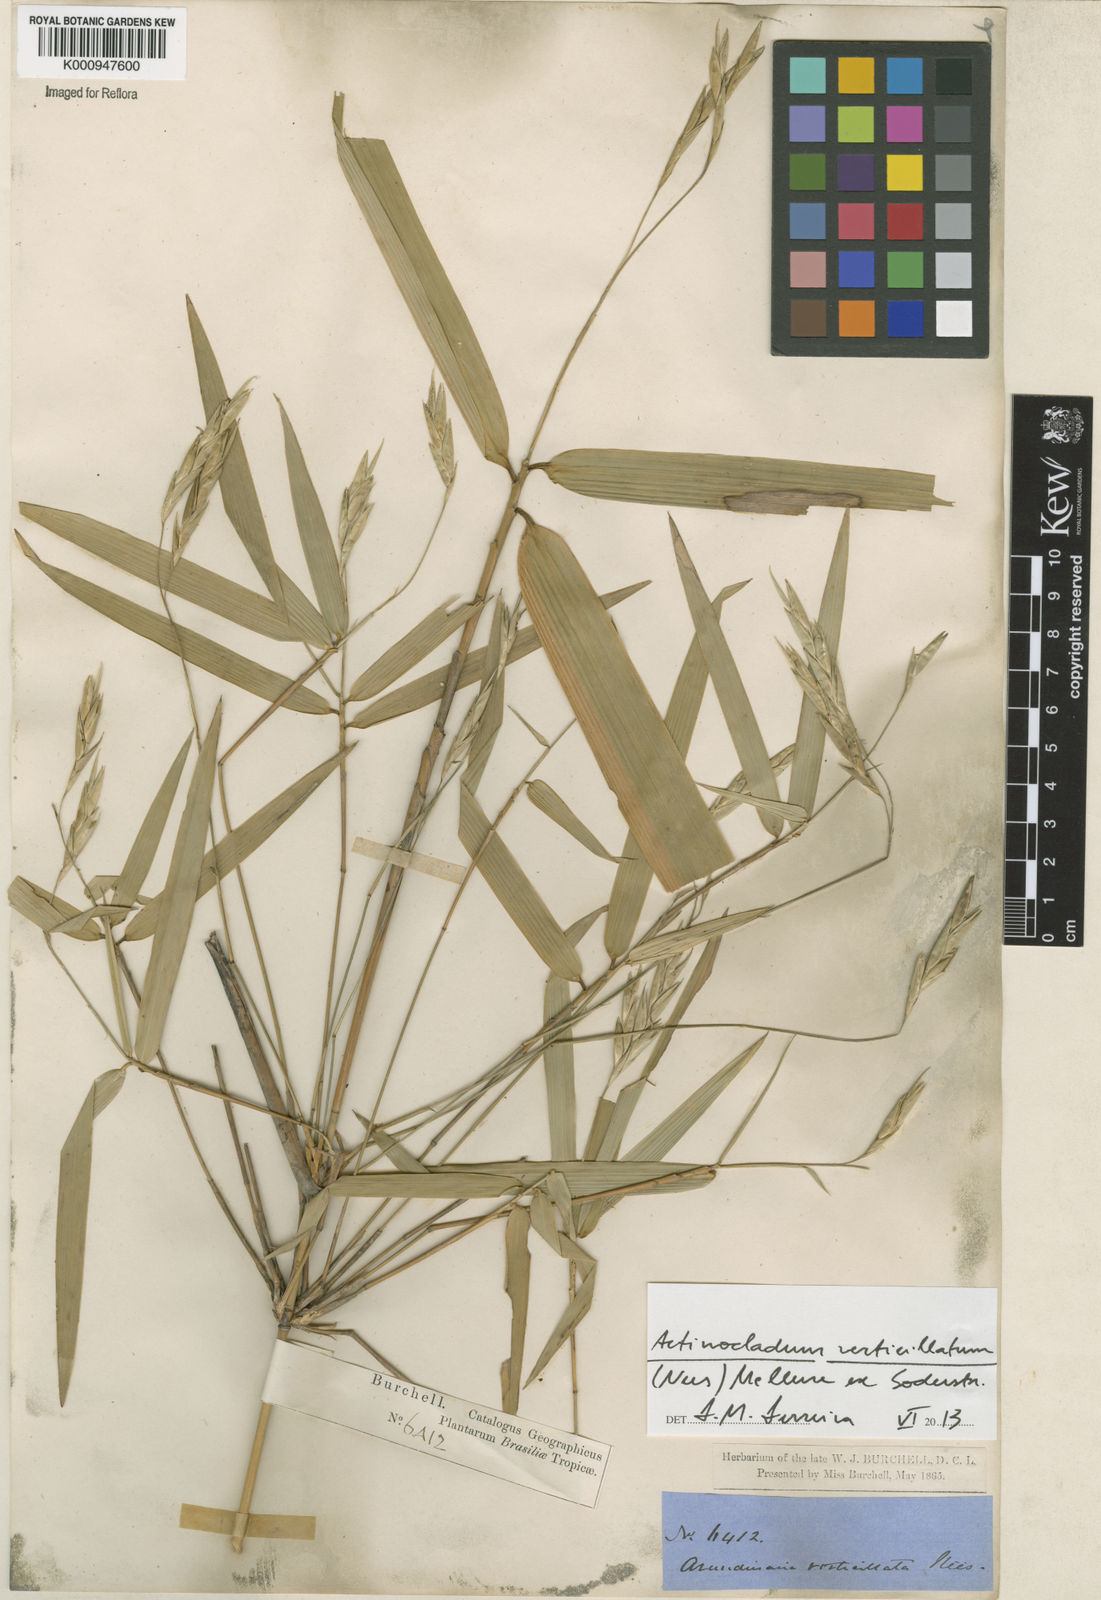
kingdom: Plantae
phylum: Tracheophyta
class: Liliopsida
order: Poales
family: Poaceae
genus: Actinocladum
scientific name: Actinocladum verticillatum
